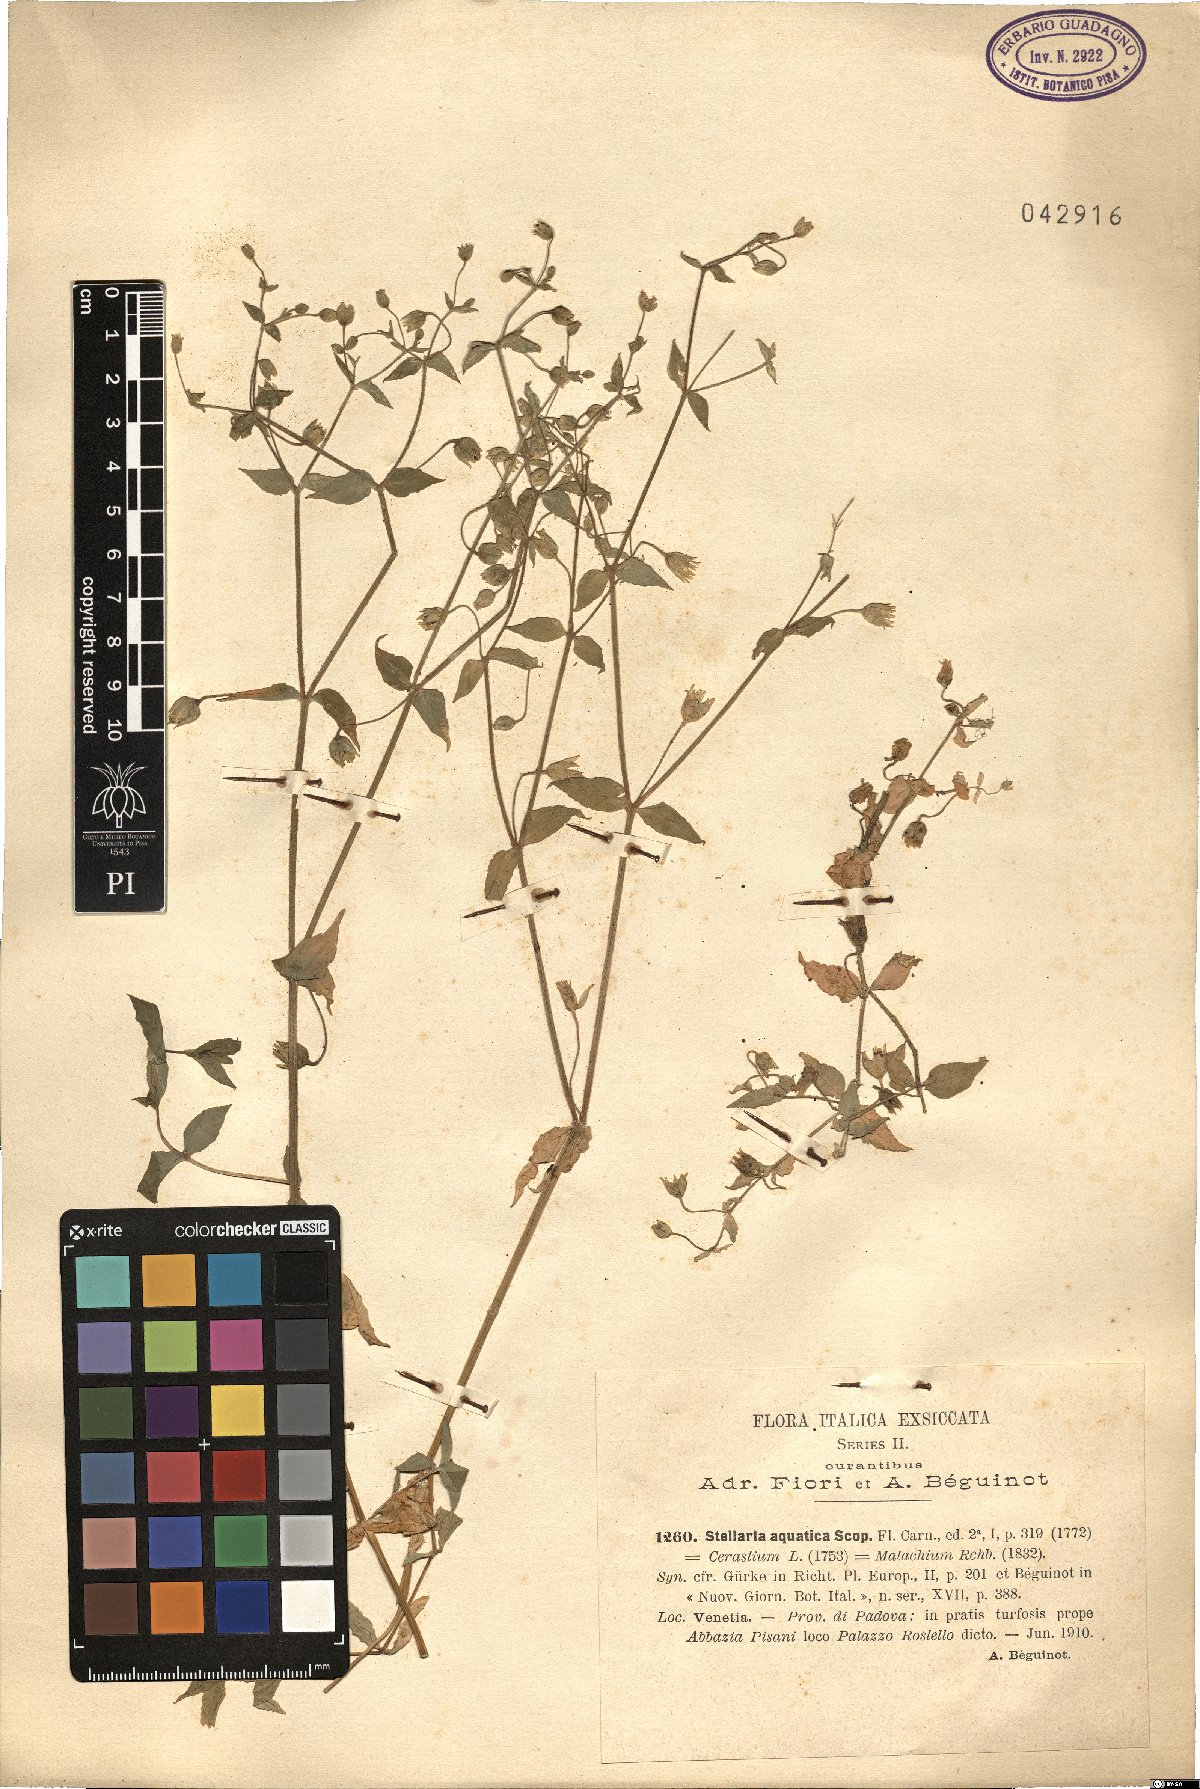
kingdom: Plantae
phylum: Tracheophyta
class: Magnoliopsida
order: Caryophyllales
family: Caryophyllaceae
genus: Stellaria
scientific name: Stellaria aquatica
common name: Water chickweed
